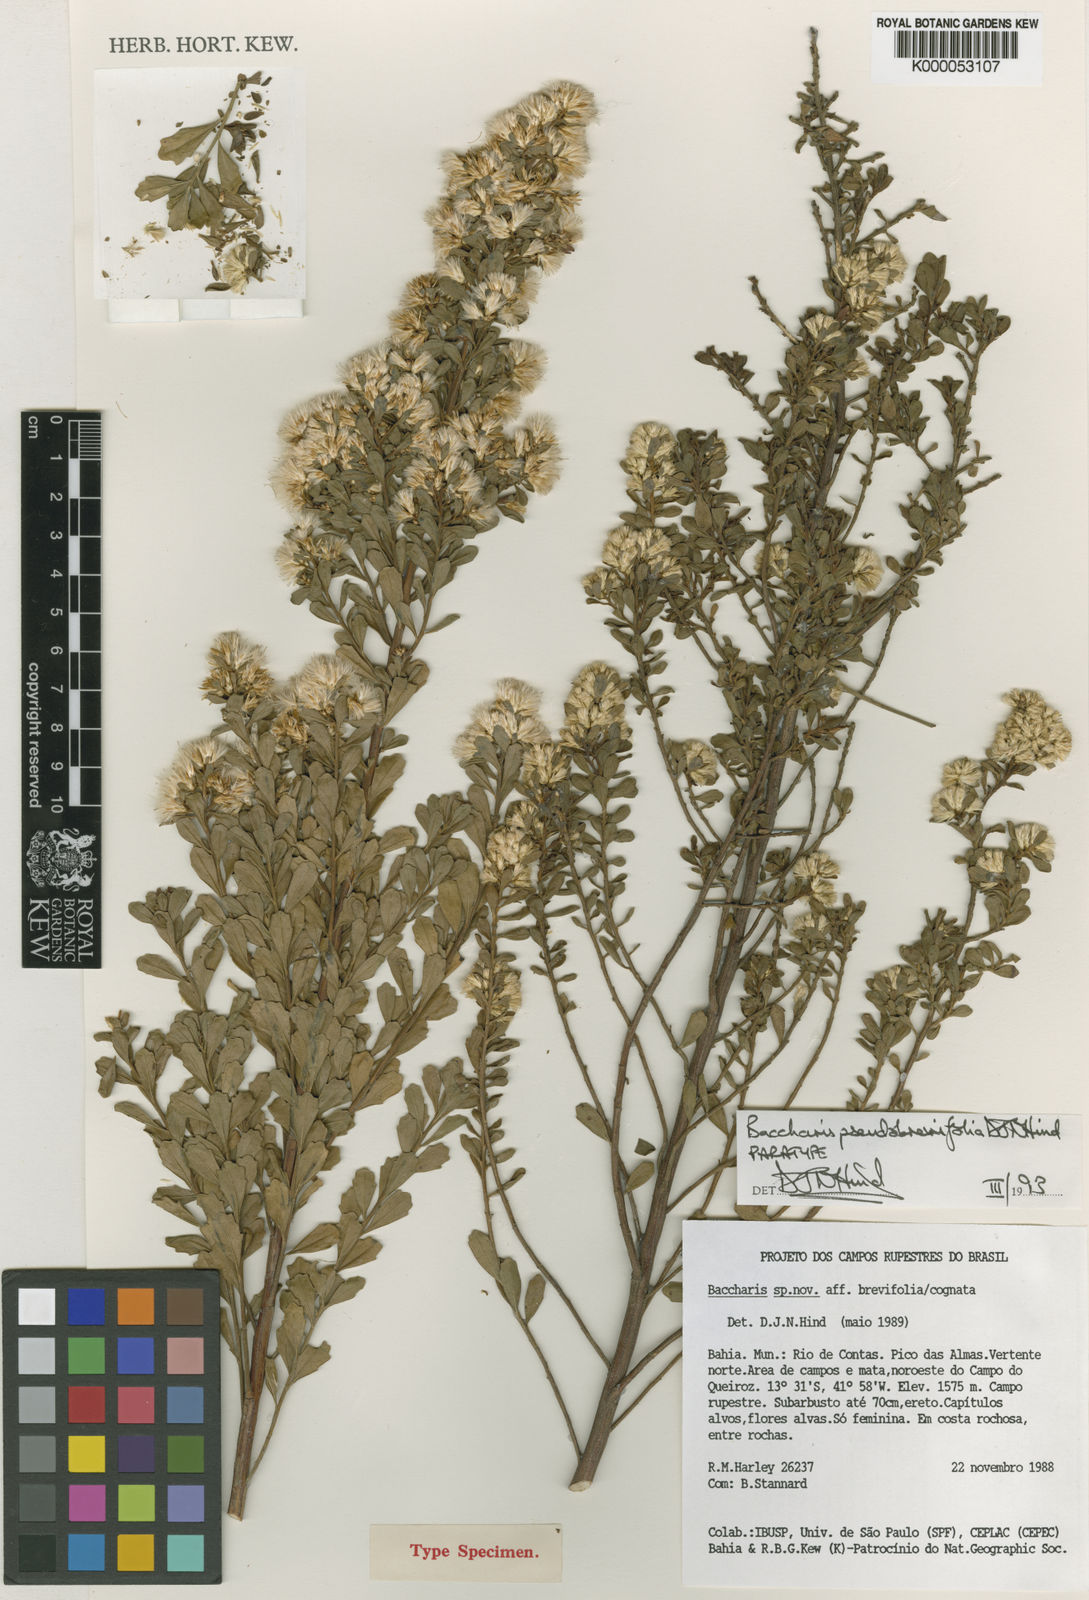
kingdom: Plantae
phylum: Tracheophyta
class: Magnoliopsida
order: Asterales
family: Asteraceae
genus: Baccharis
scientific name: Baccharis brevifolia
